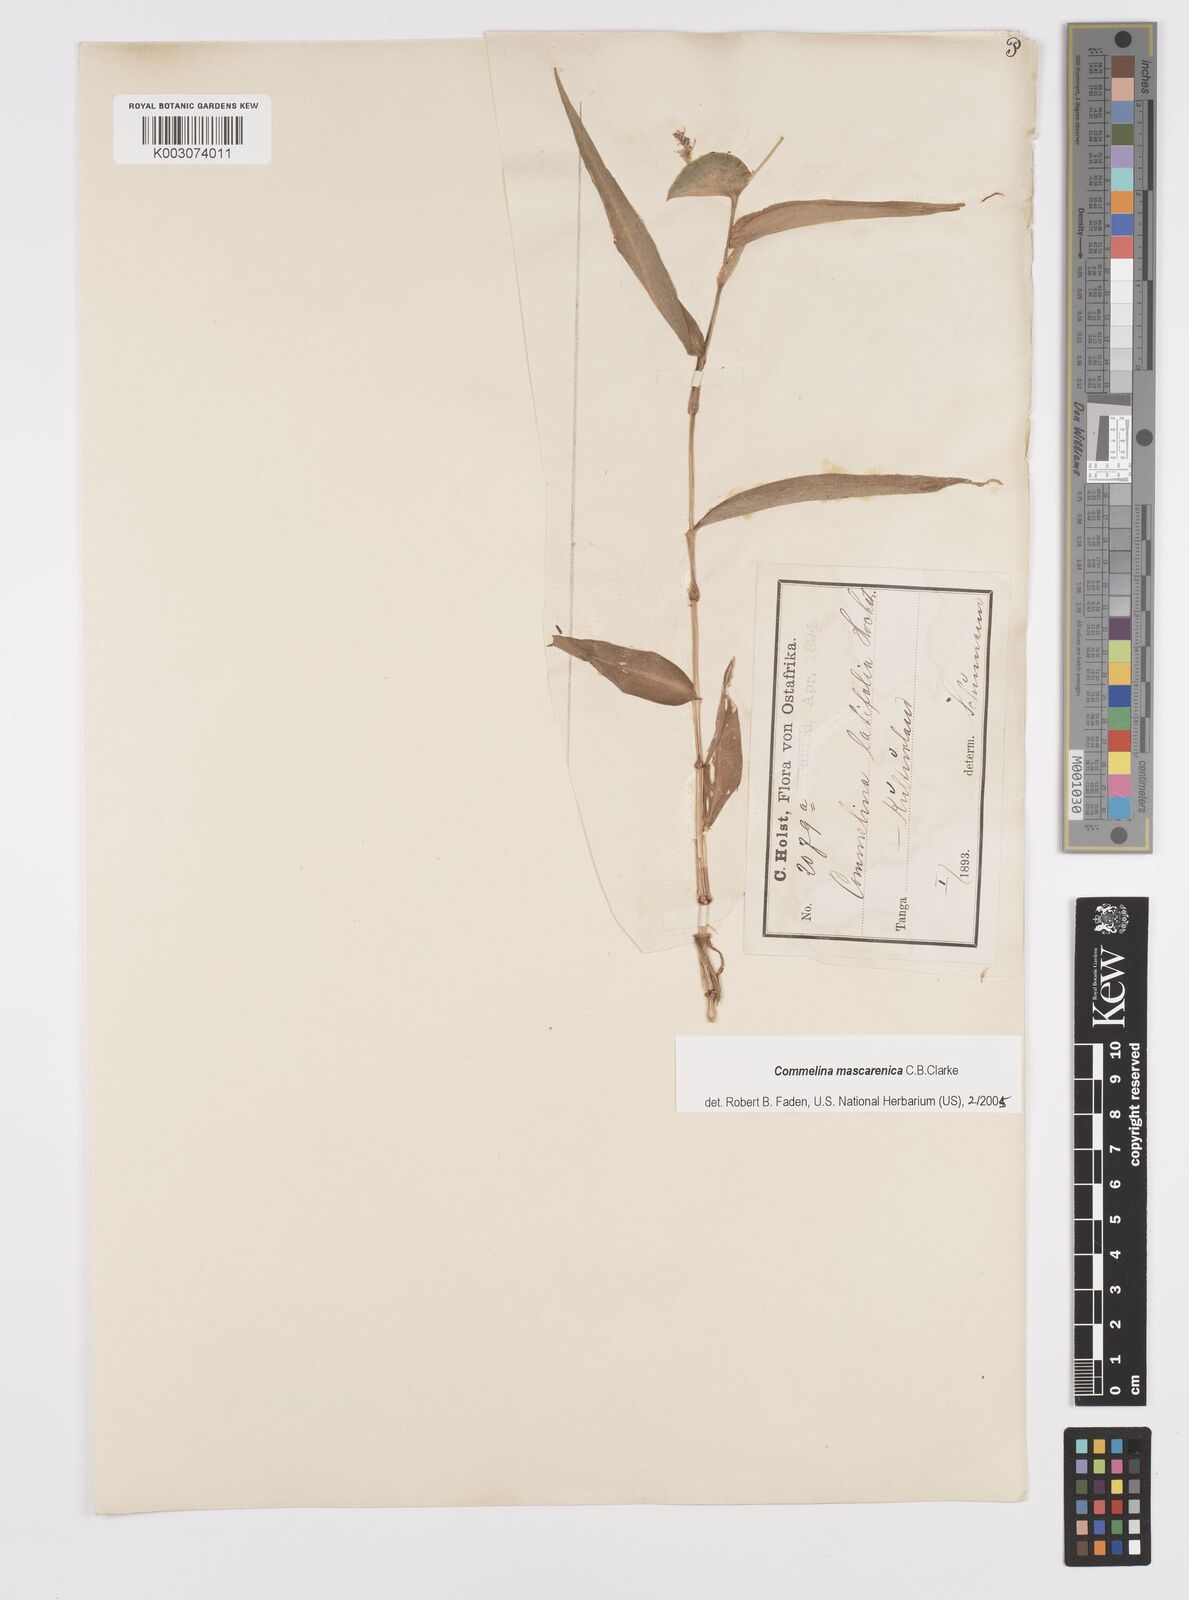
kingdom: Plantae
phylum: Tracheophyta
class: Liliopsida
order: Commelinales
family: Commelinaceae
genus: Commelina
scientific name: Commelina mascarenica
